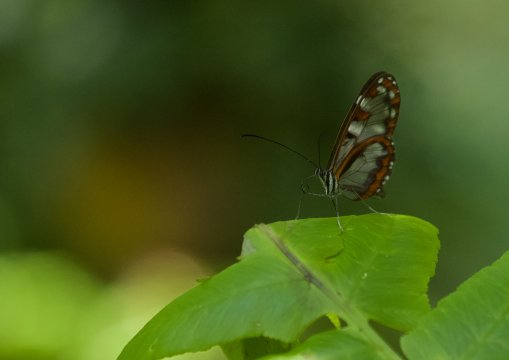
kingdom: Animalia
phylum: Arthropoda
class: Insecta
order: Lepidoptera
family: Nymphalidae
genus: Oleria
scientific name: Oleria
